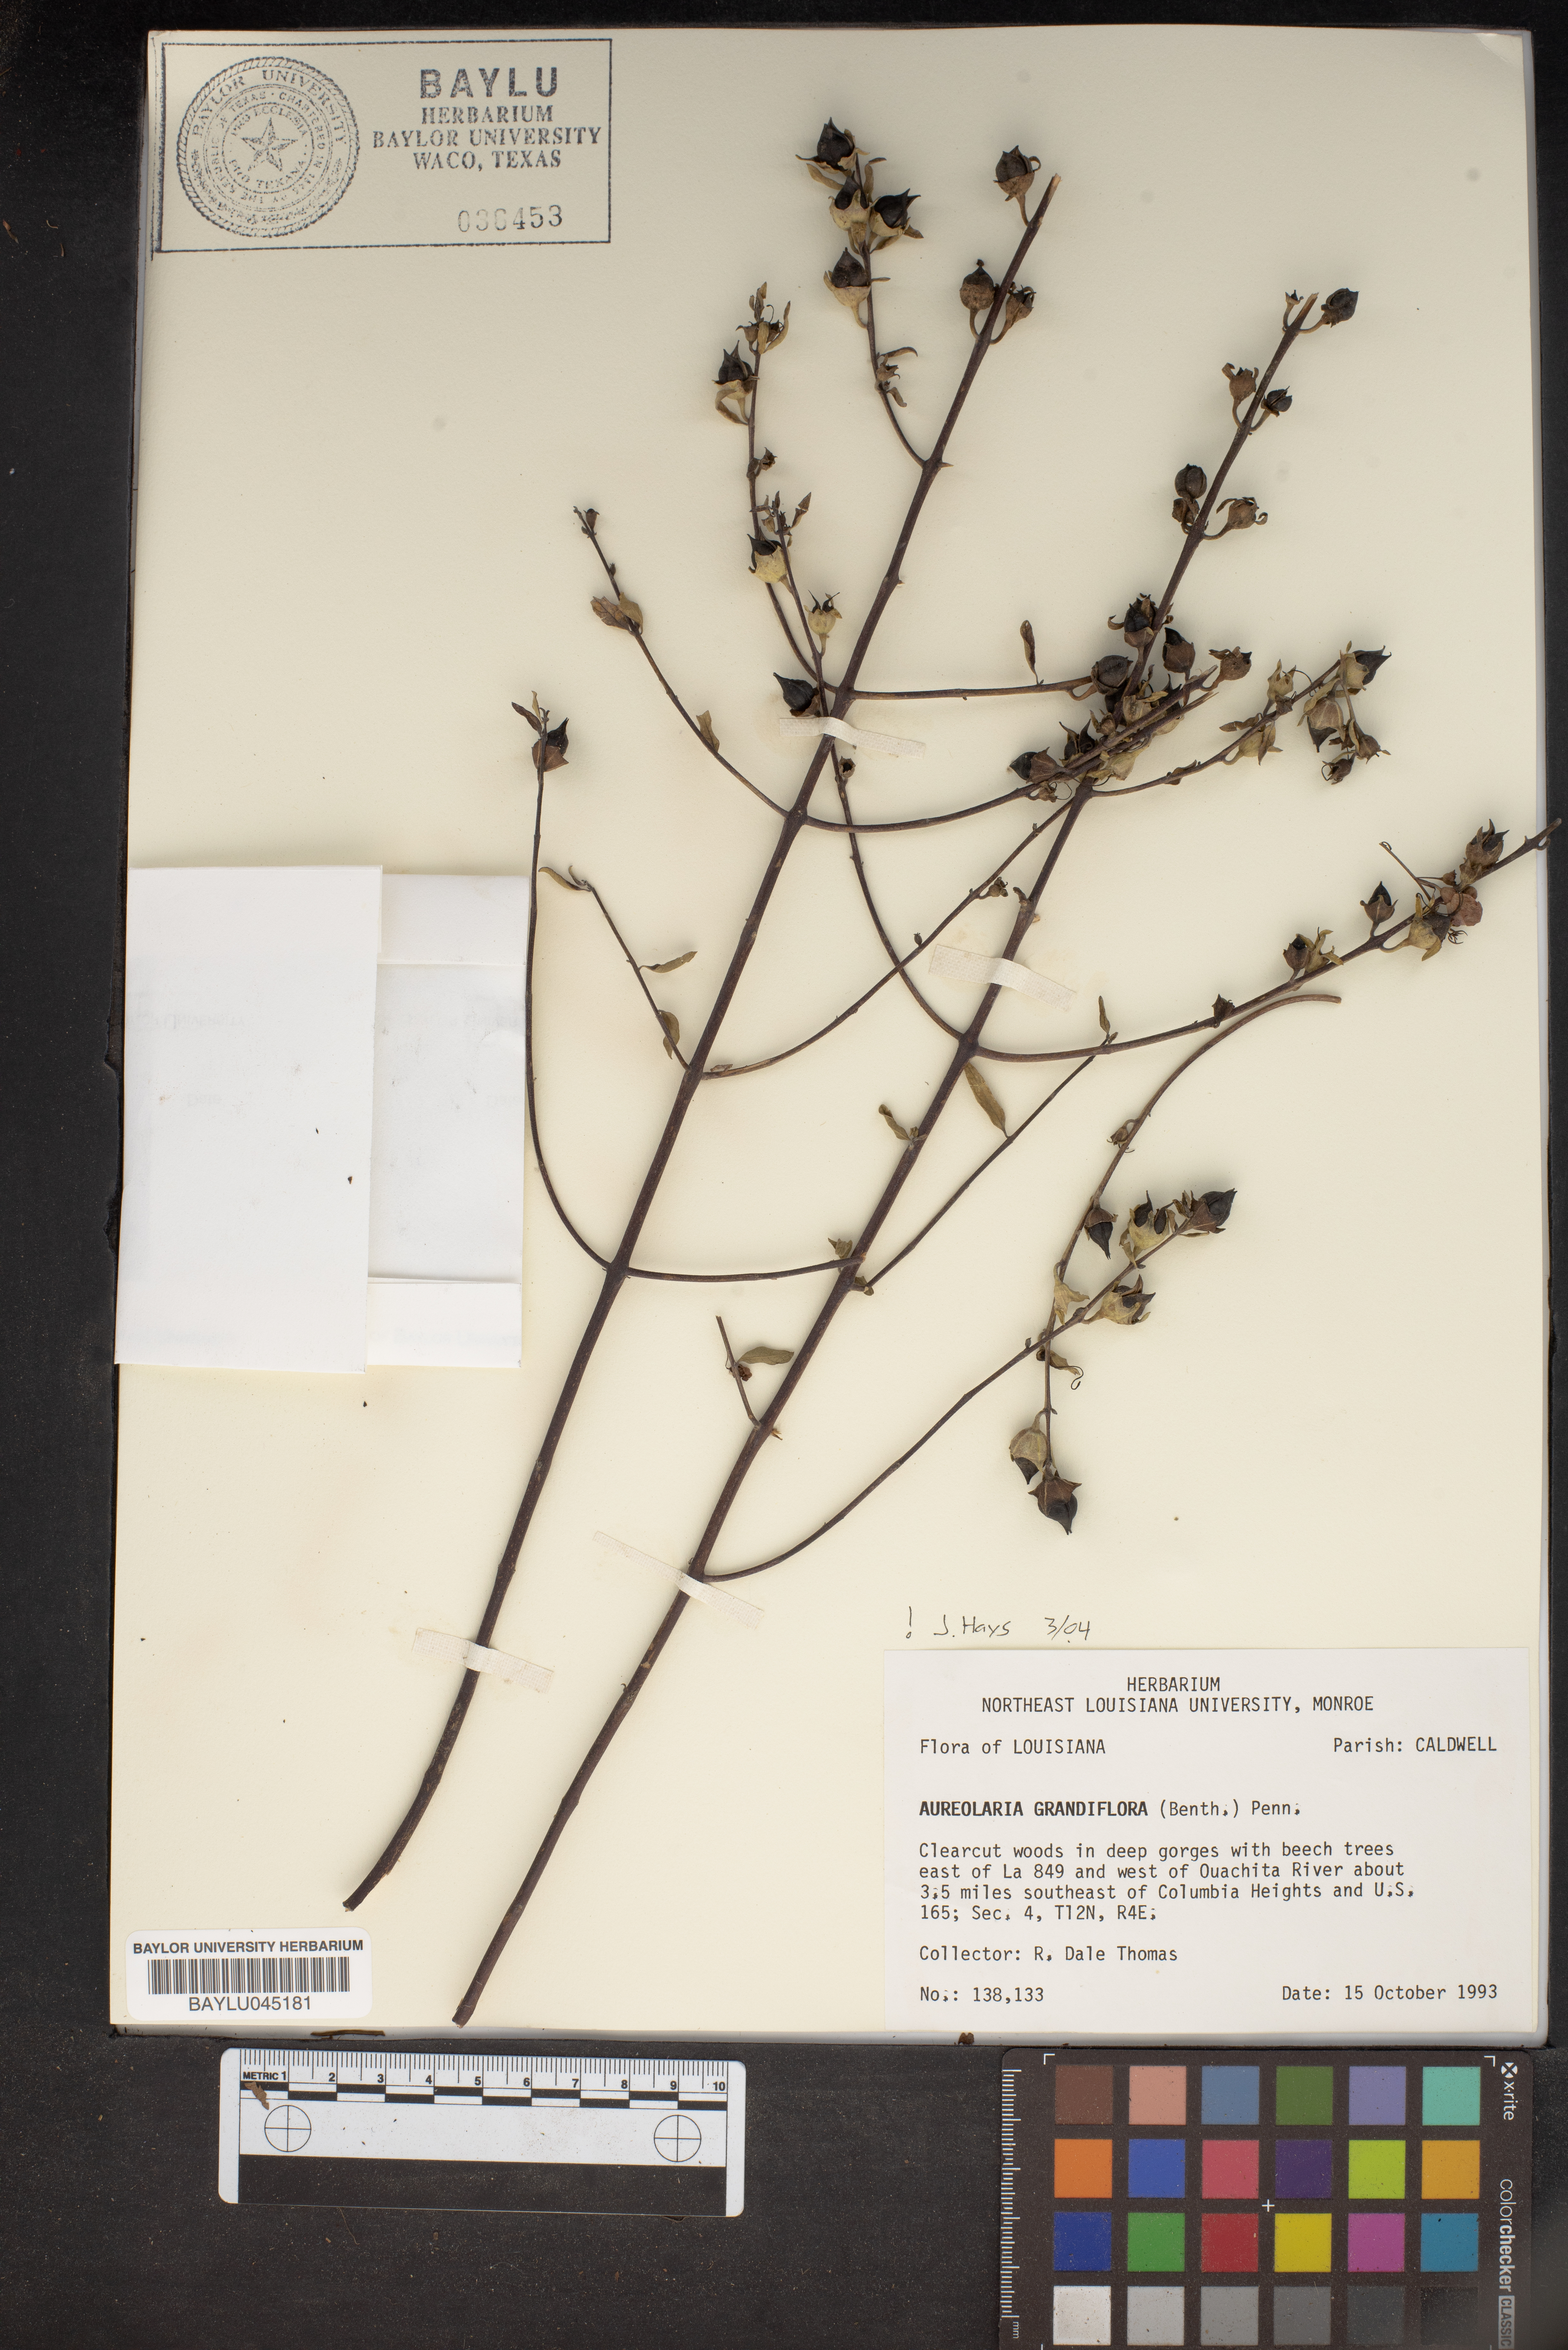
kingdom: Plantae
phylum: Tracheophyta
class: Magnoliopsida
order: Lamiales
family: Orobanchaceae
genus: Aureolaria
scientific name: Aureolaria grandiflora
